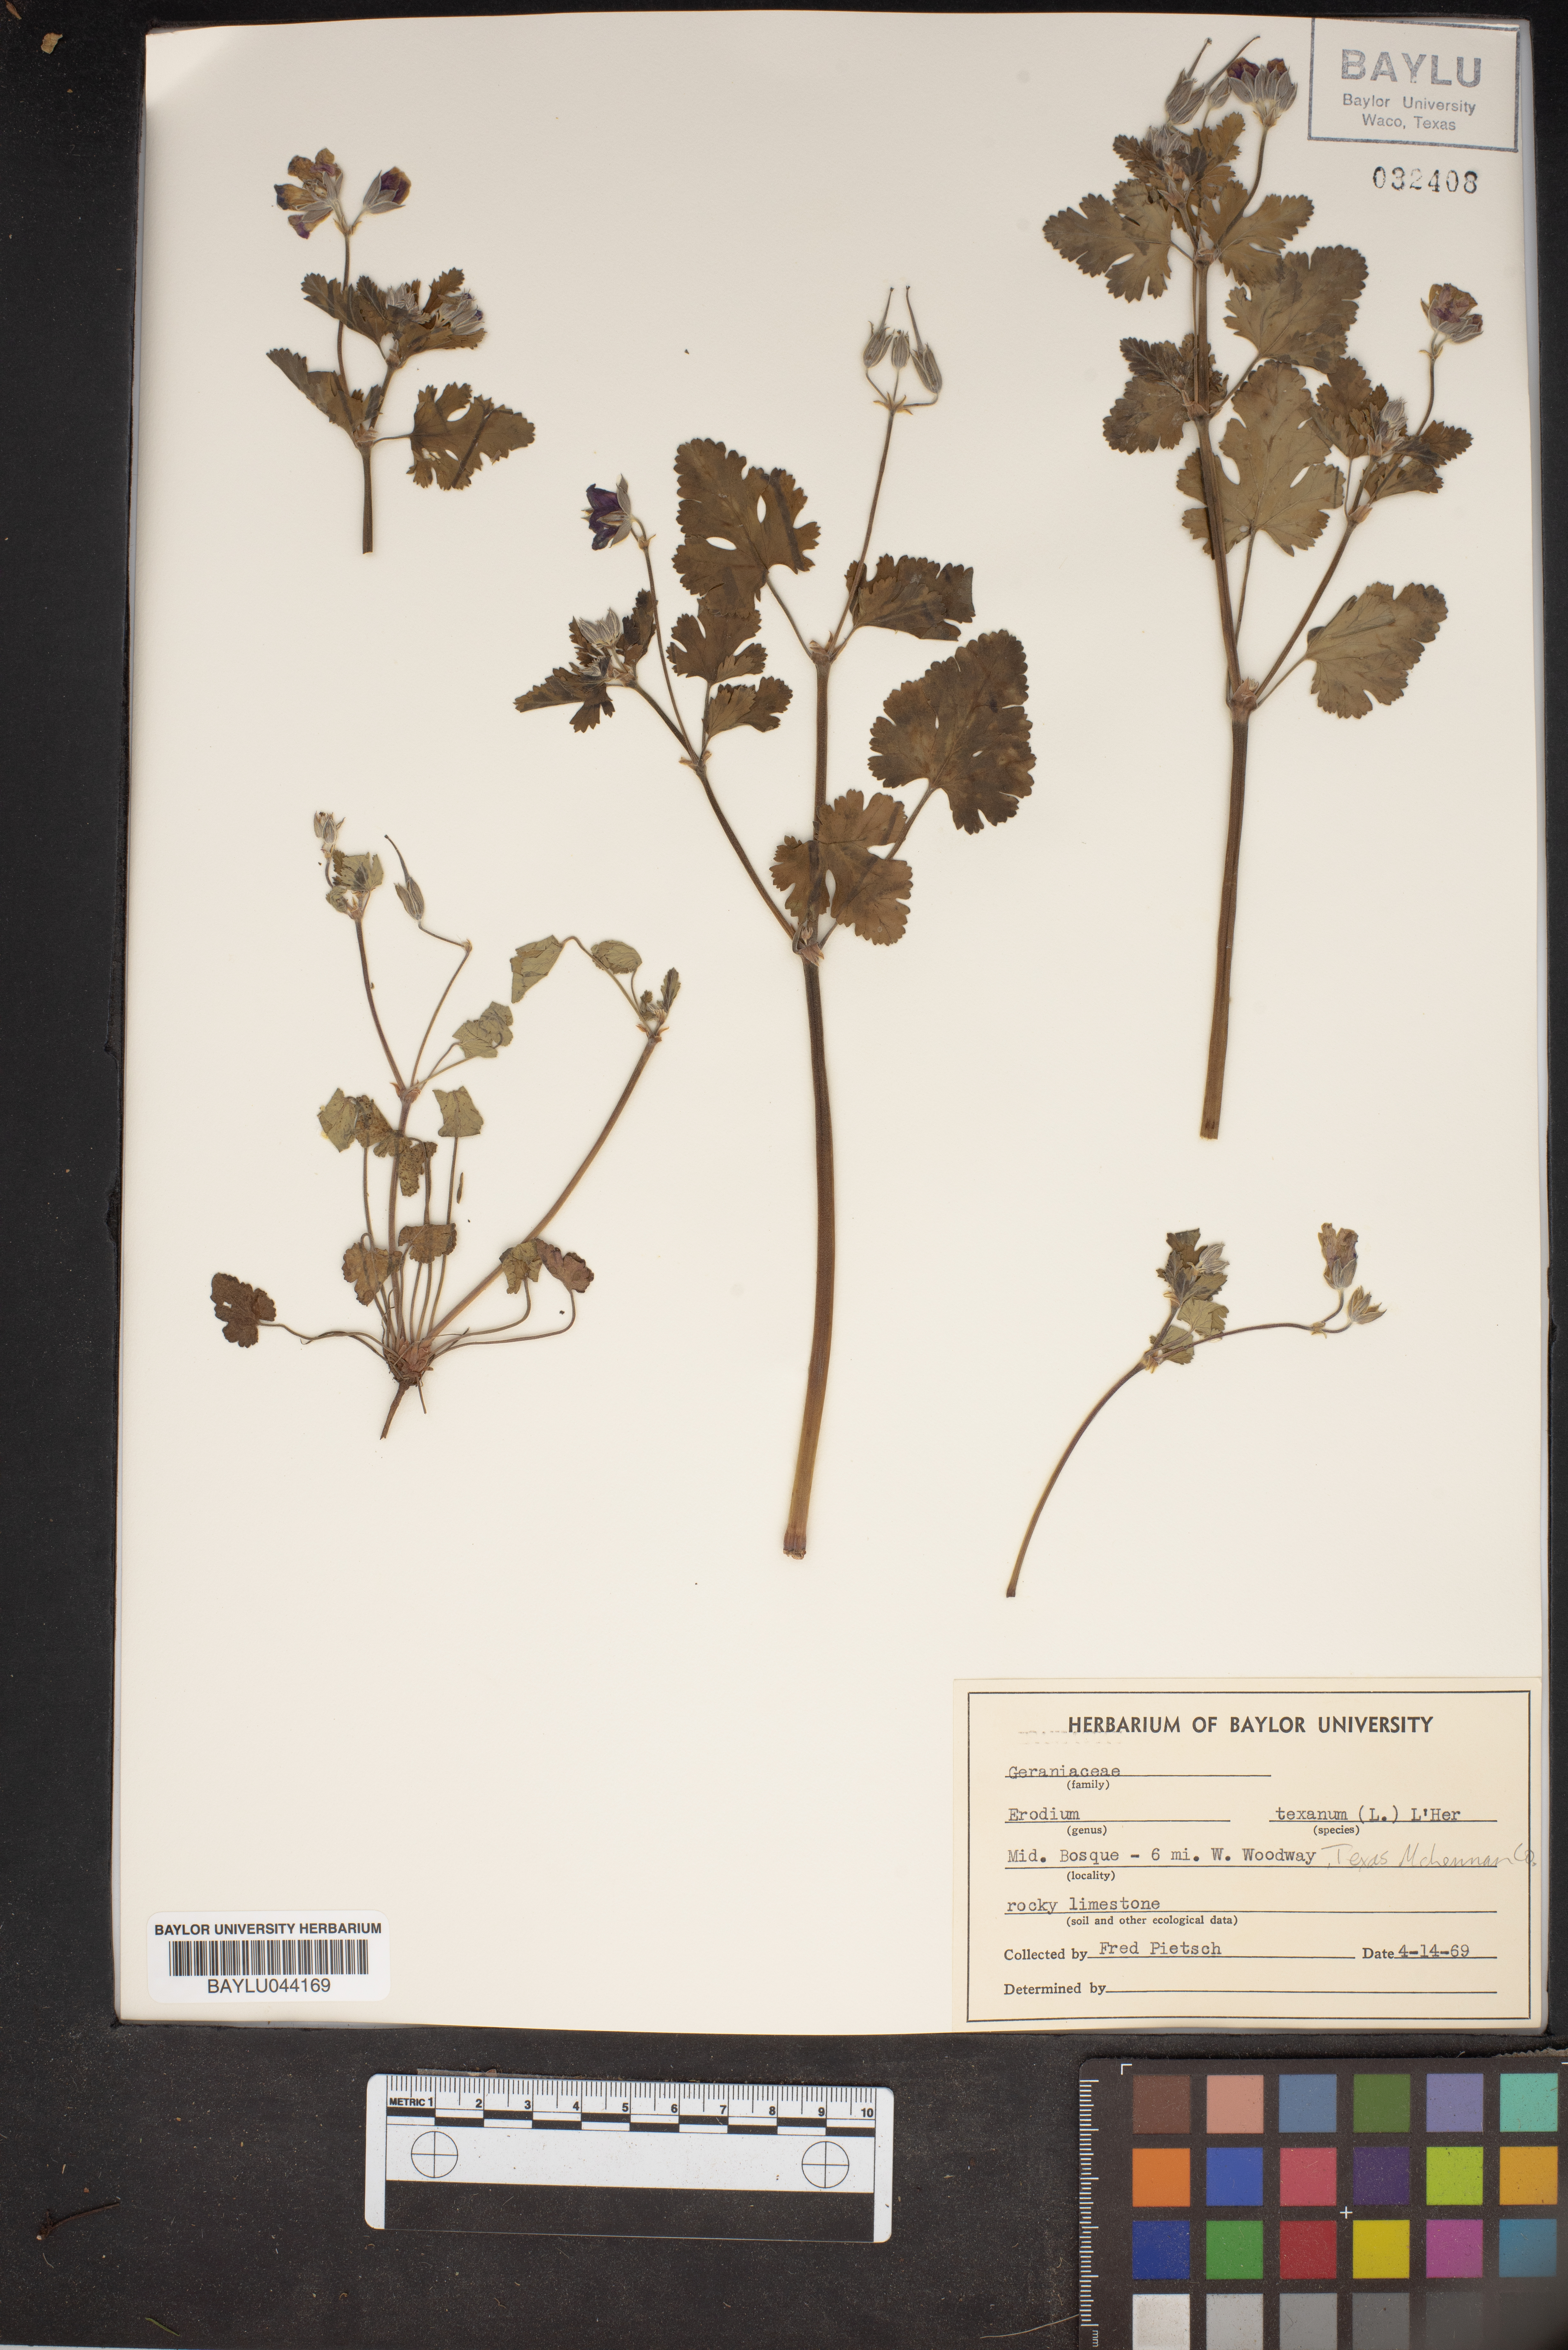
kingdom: Plantae
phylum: Tracheophyta
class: Magnoliopsida
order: Geraniales
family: Geraniaceae
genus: Erodium
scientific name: Erodium texanum
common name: Texas stork's-bill
